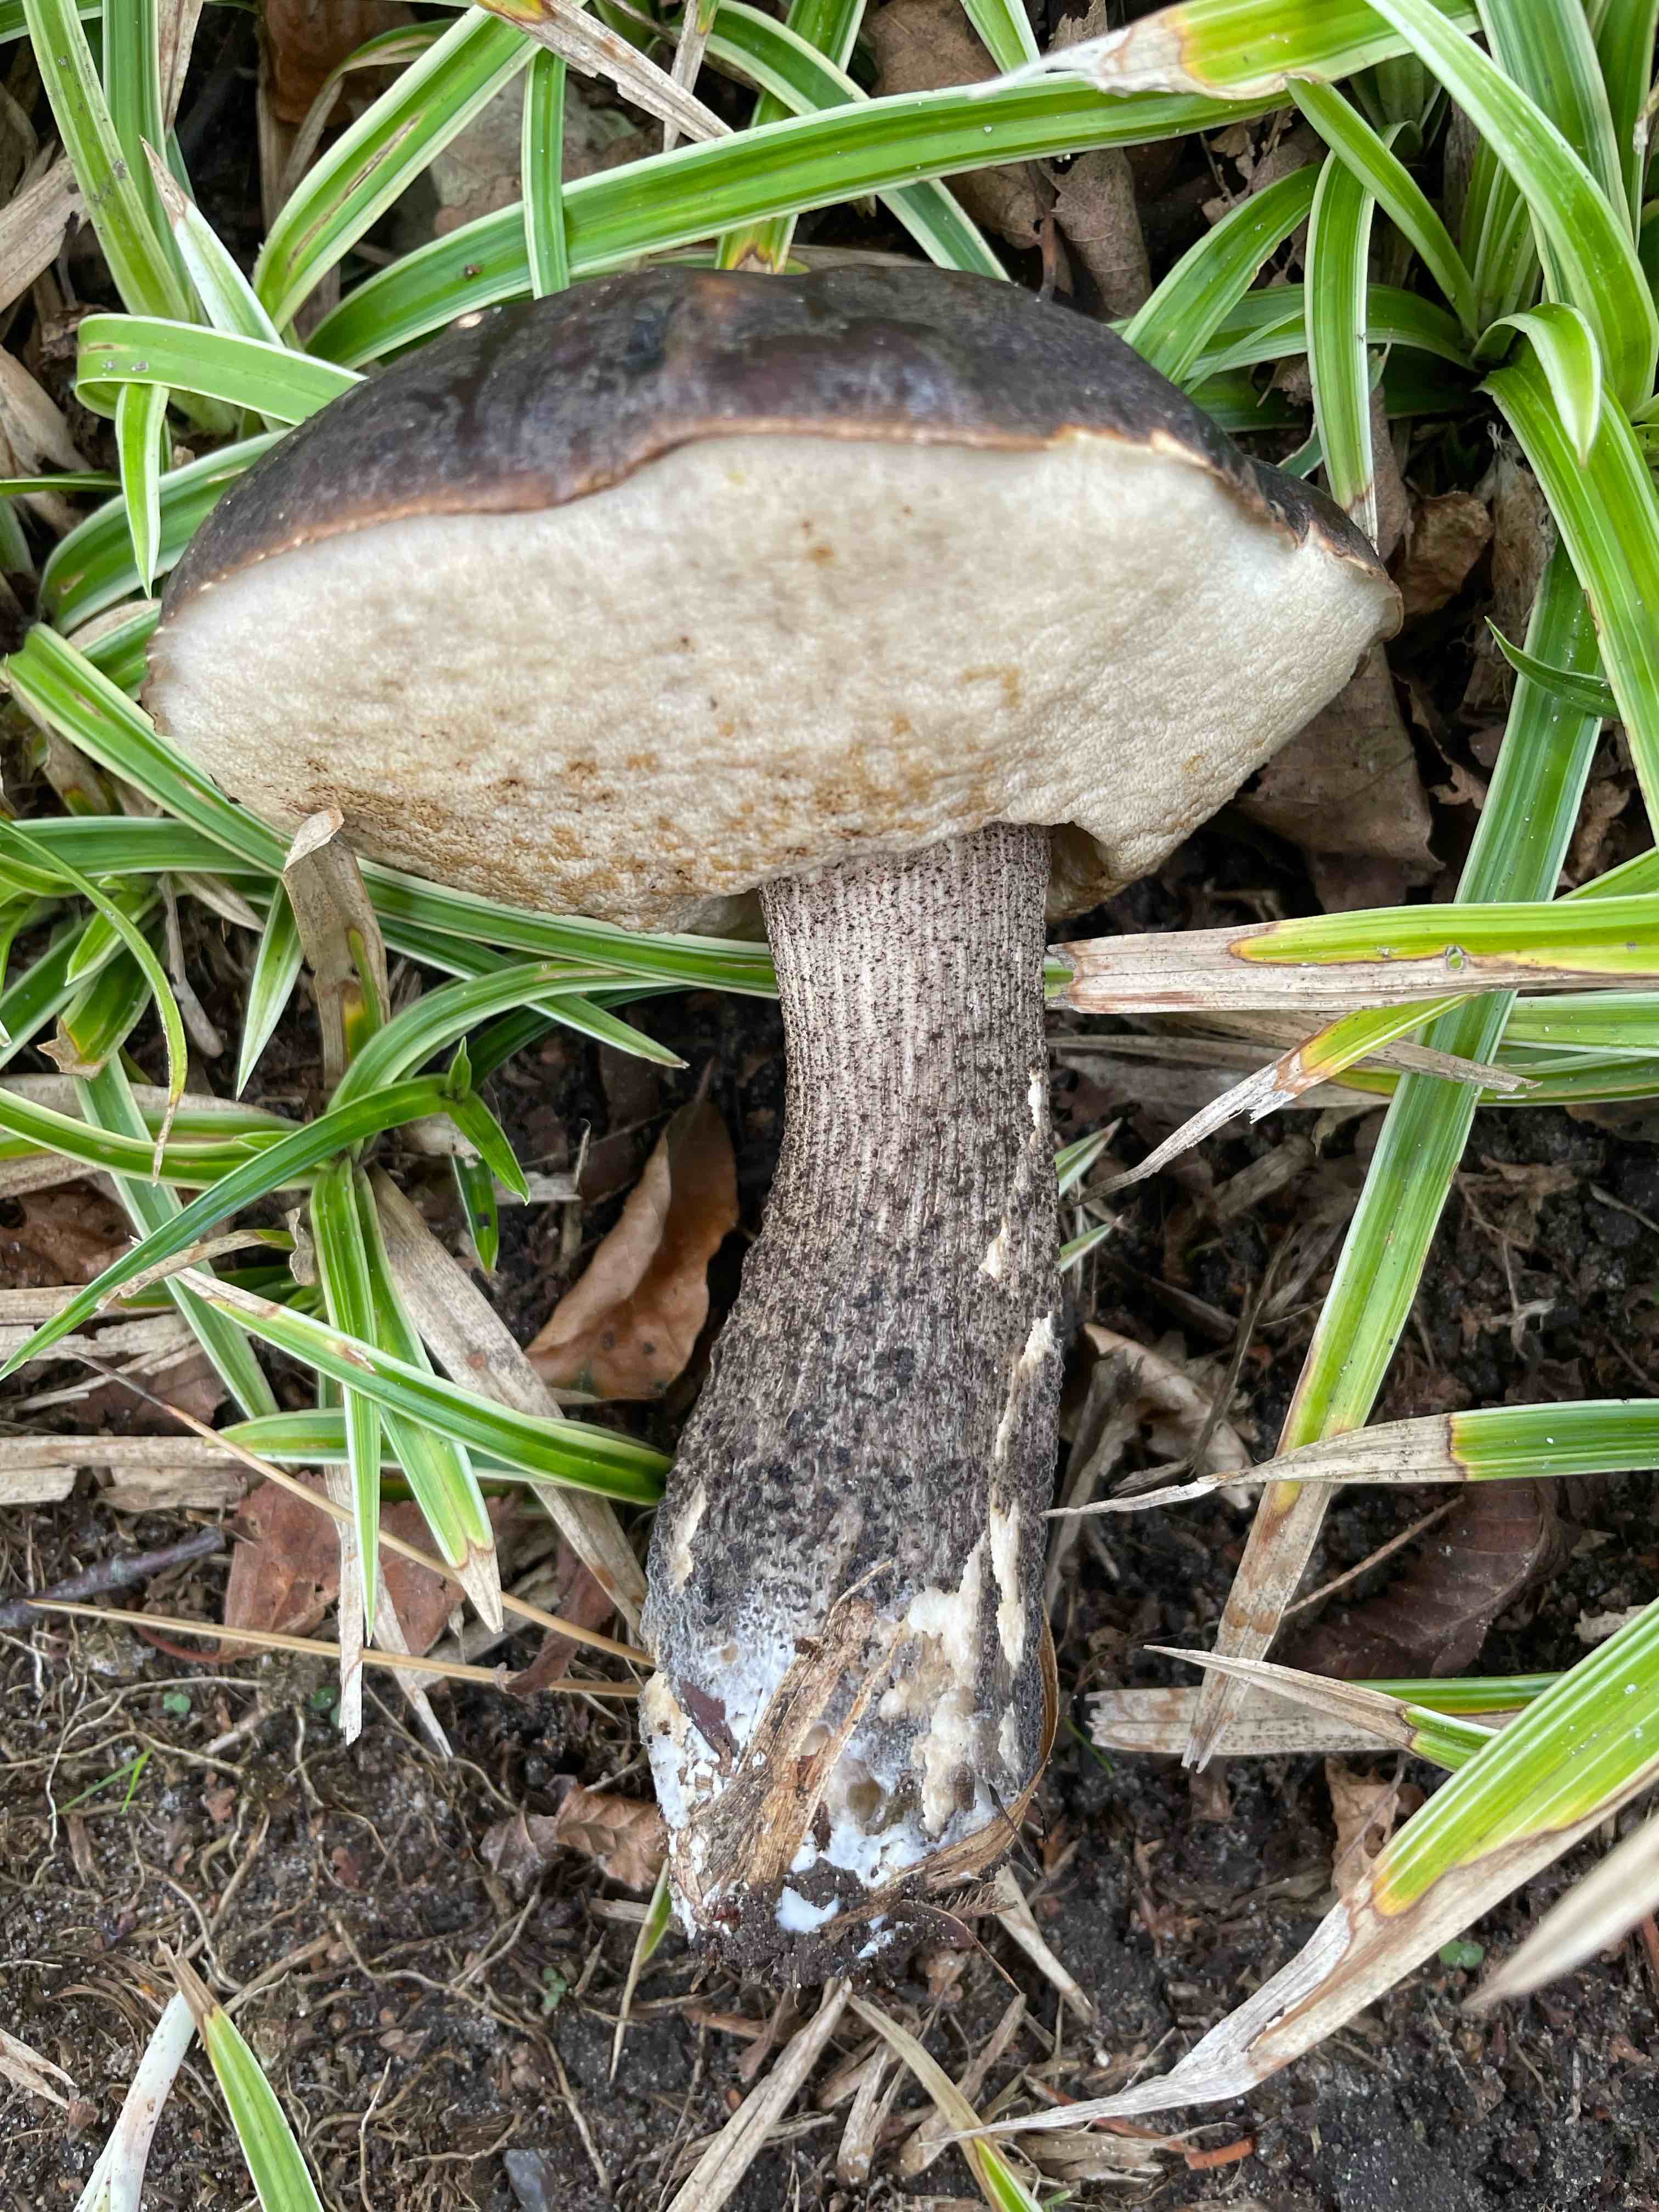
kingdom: Fungi
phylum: Basidiomycota
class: Agaricomycetes
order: Boletales
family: Boletaceae
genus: Leccinum
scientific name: Leccinum melaneum
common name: mørk skælrørhat
